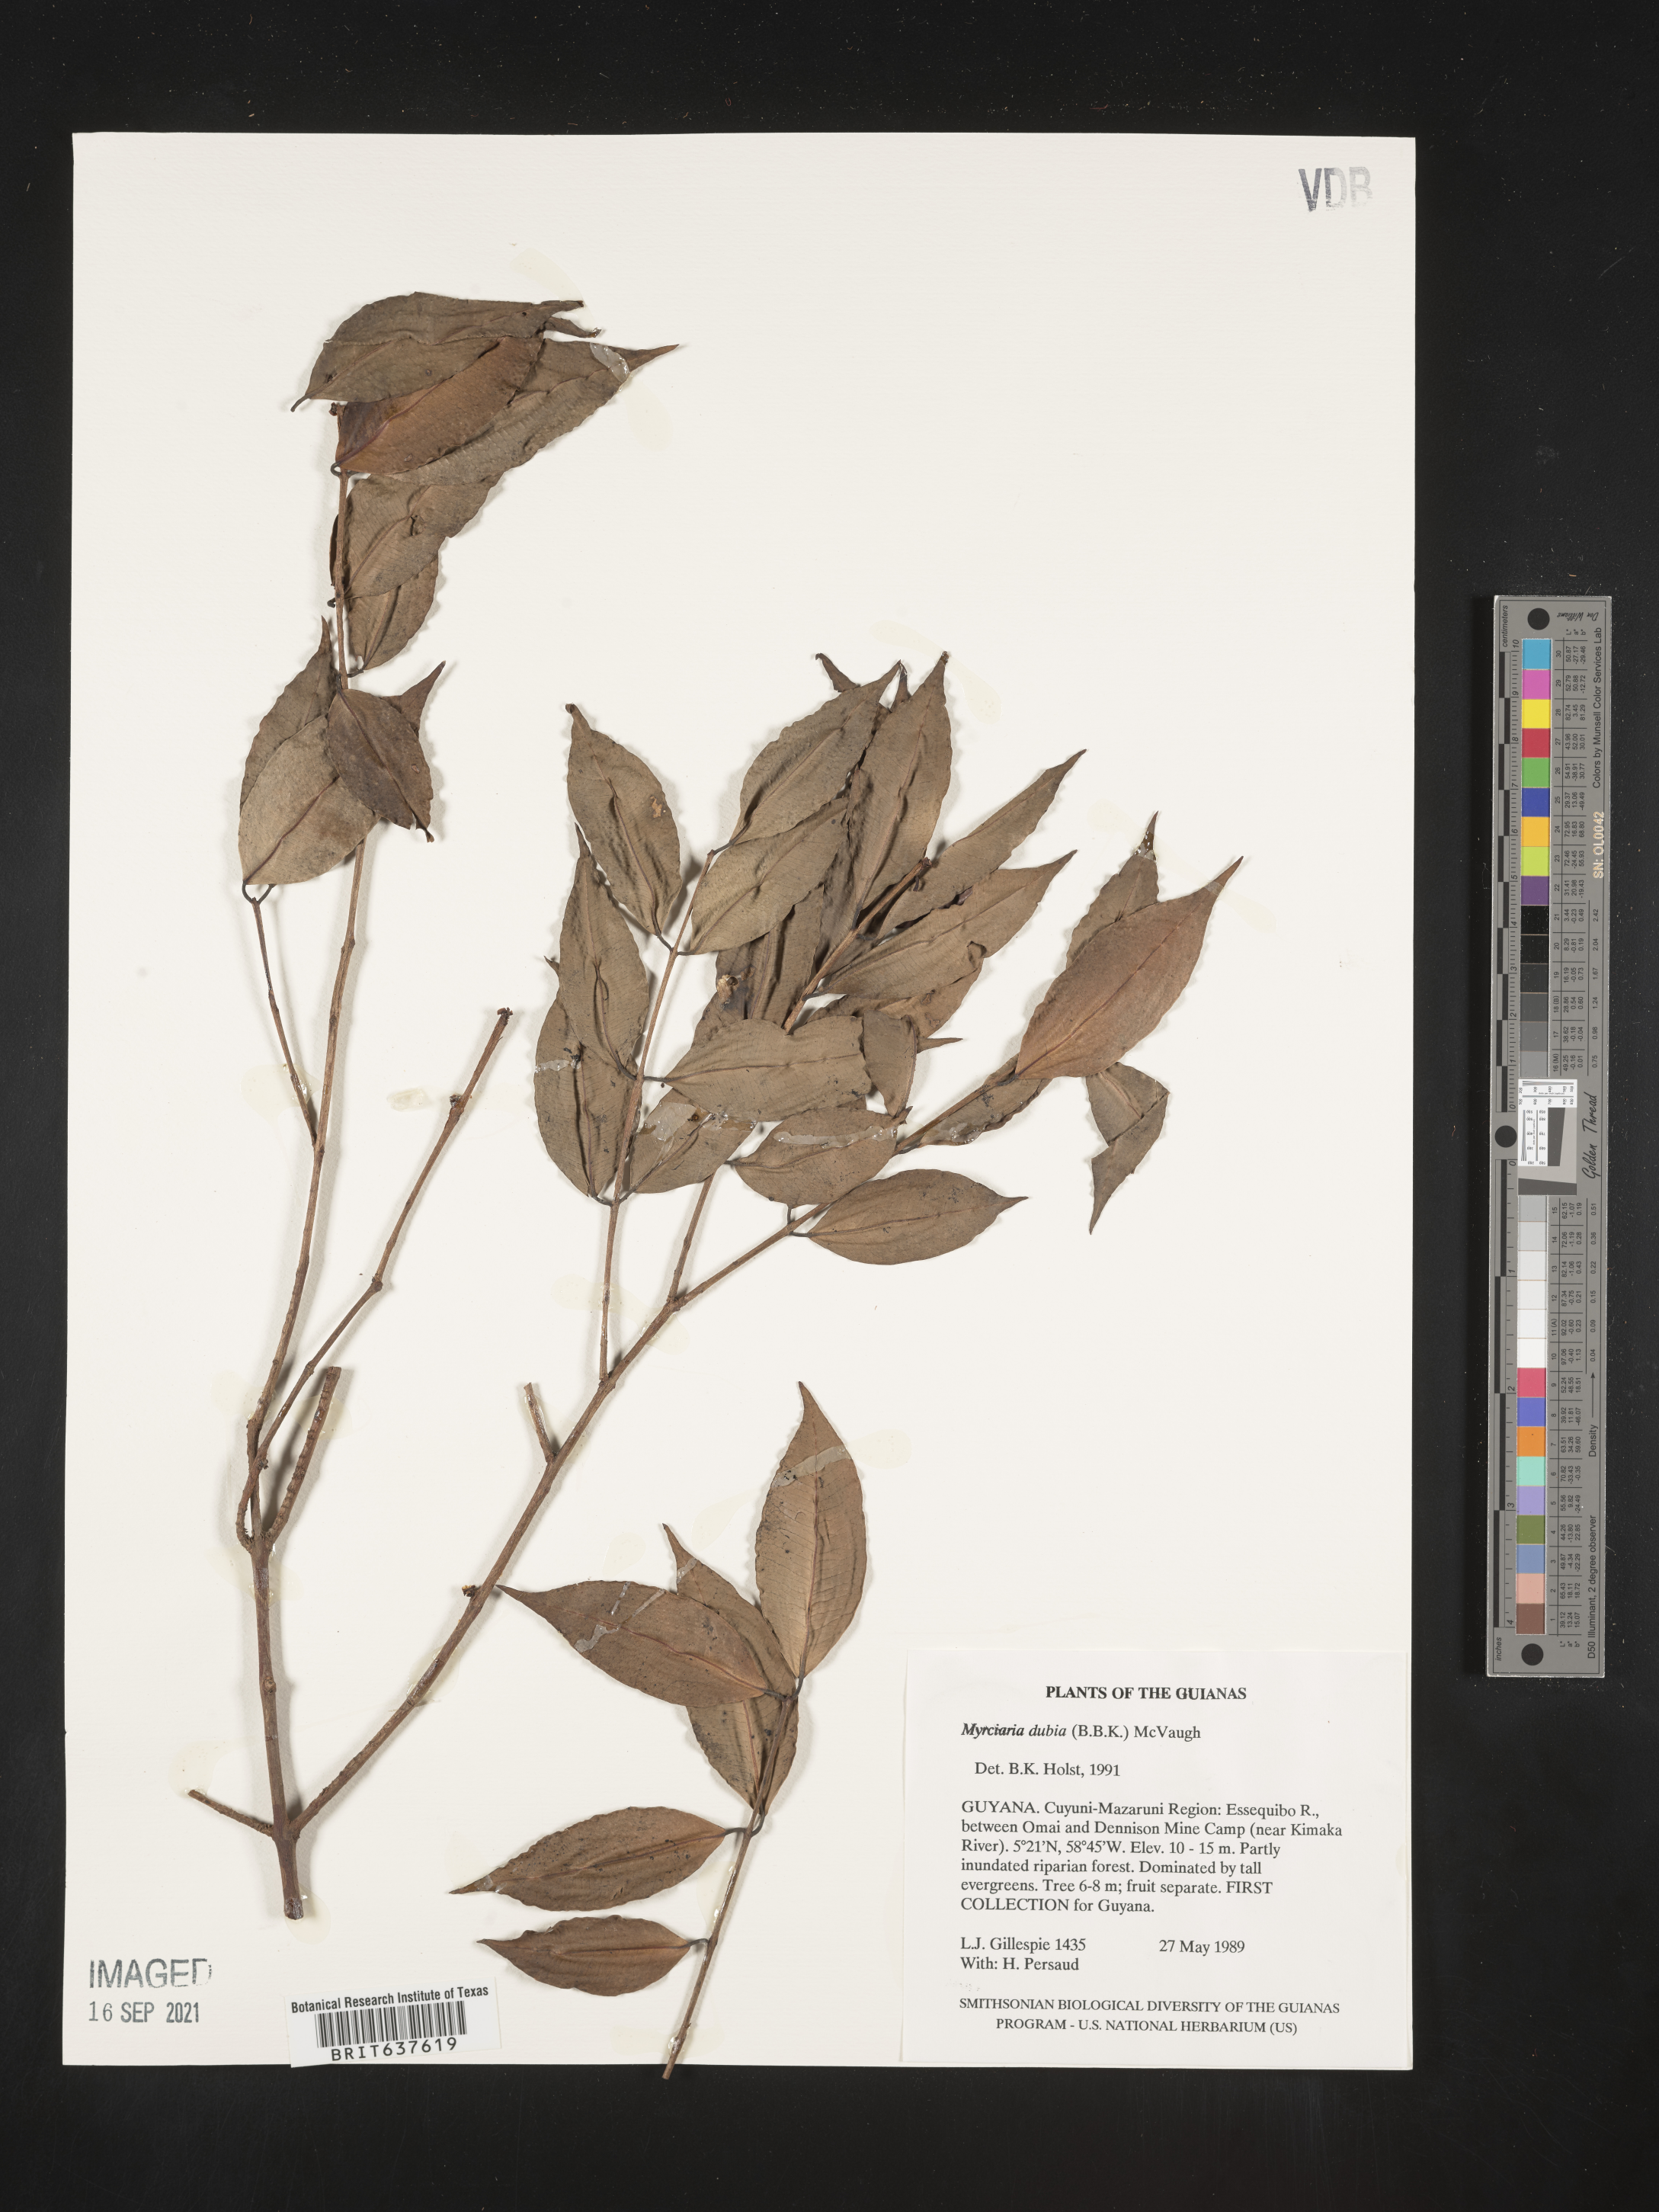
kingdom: Plantae
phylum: Tracheophyta
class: Magnoliopsida
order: Myrtales
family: Myrtaceae
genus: Myrciaria
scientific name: Myrciaria
